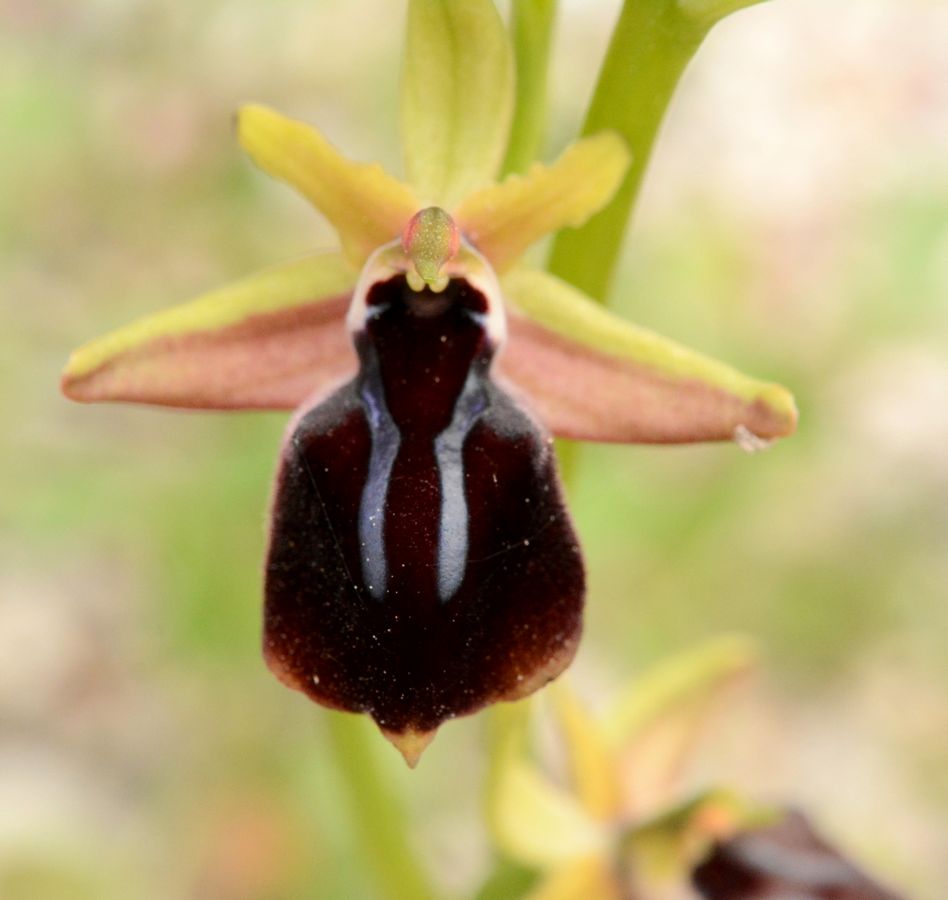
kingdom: Plantae
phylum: Tracheophyta
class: Liliopsida
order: Asparagales
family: Orchidaceae
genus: Ophrys
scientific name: Ophrys sphegodes
